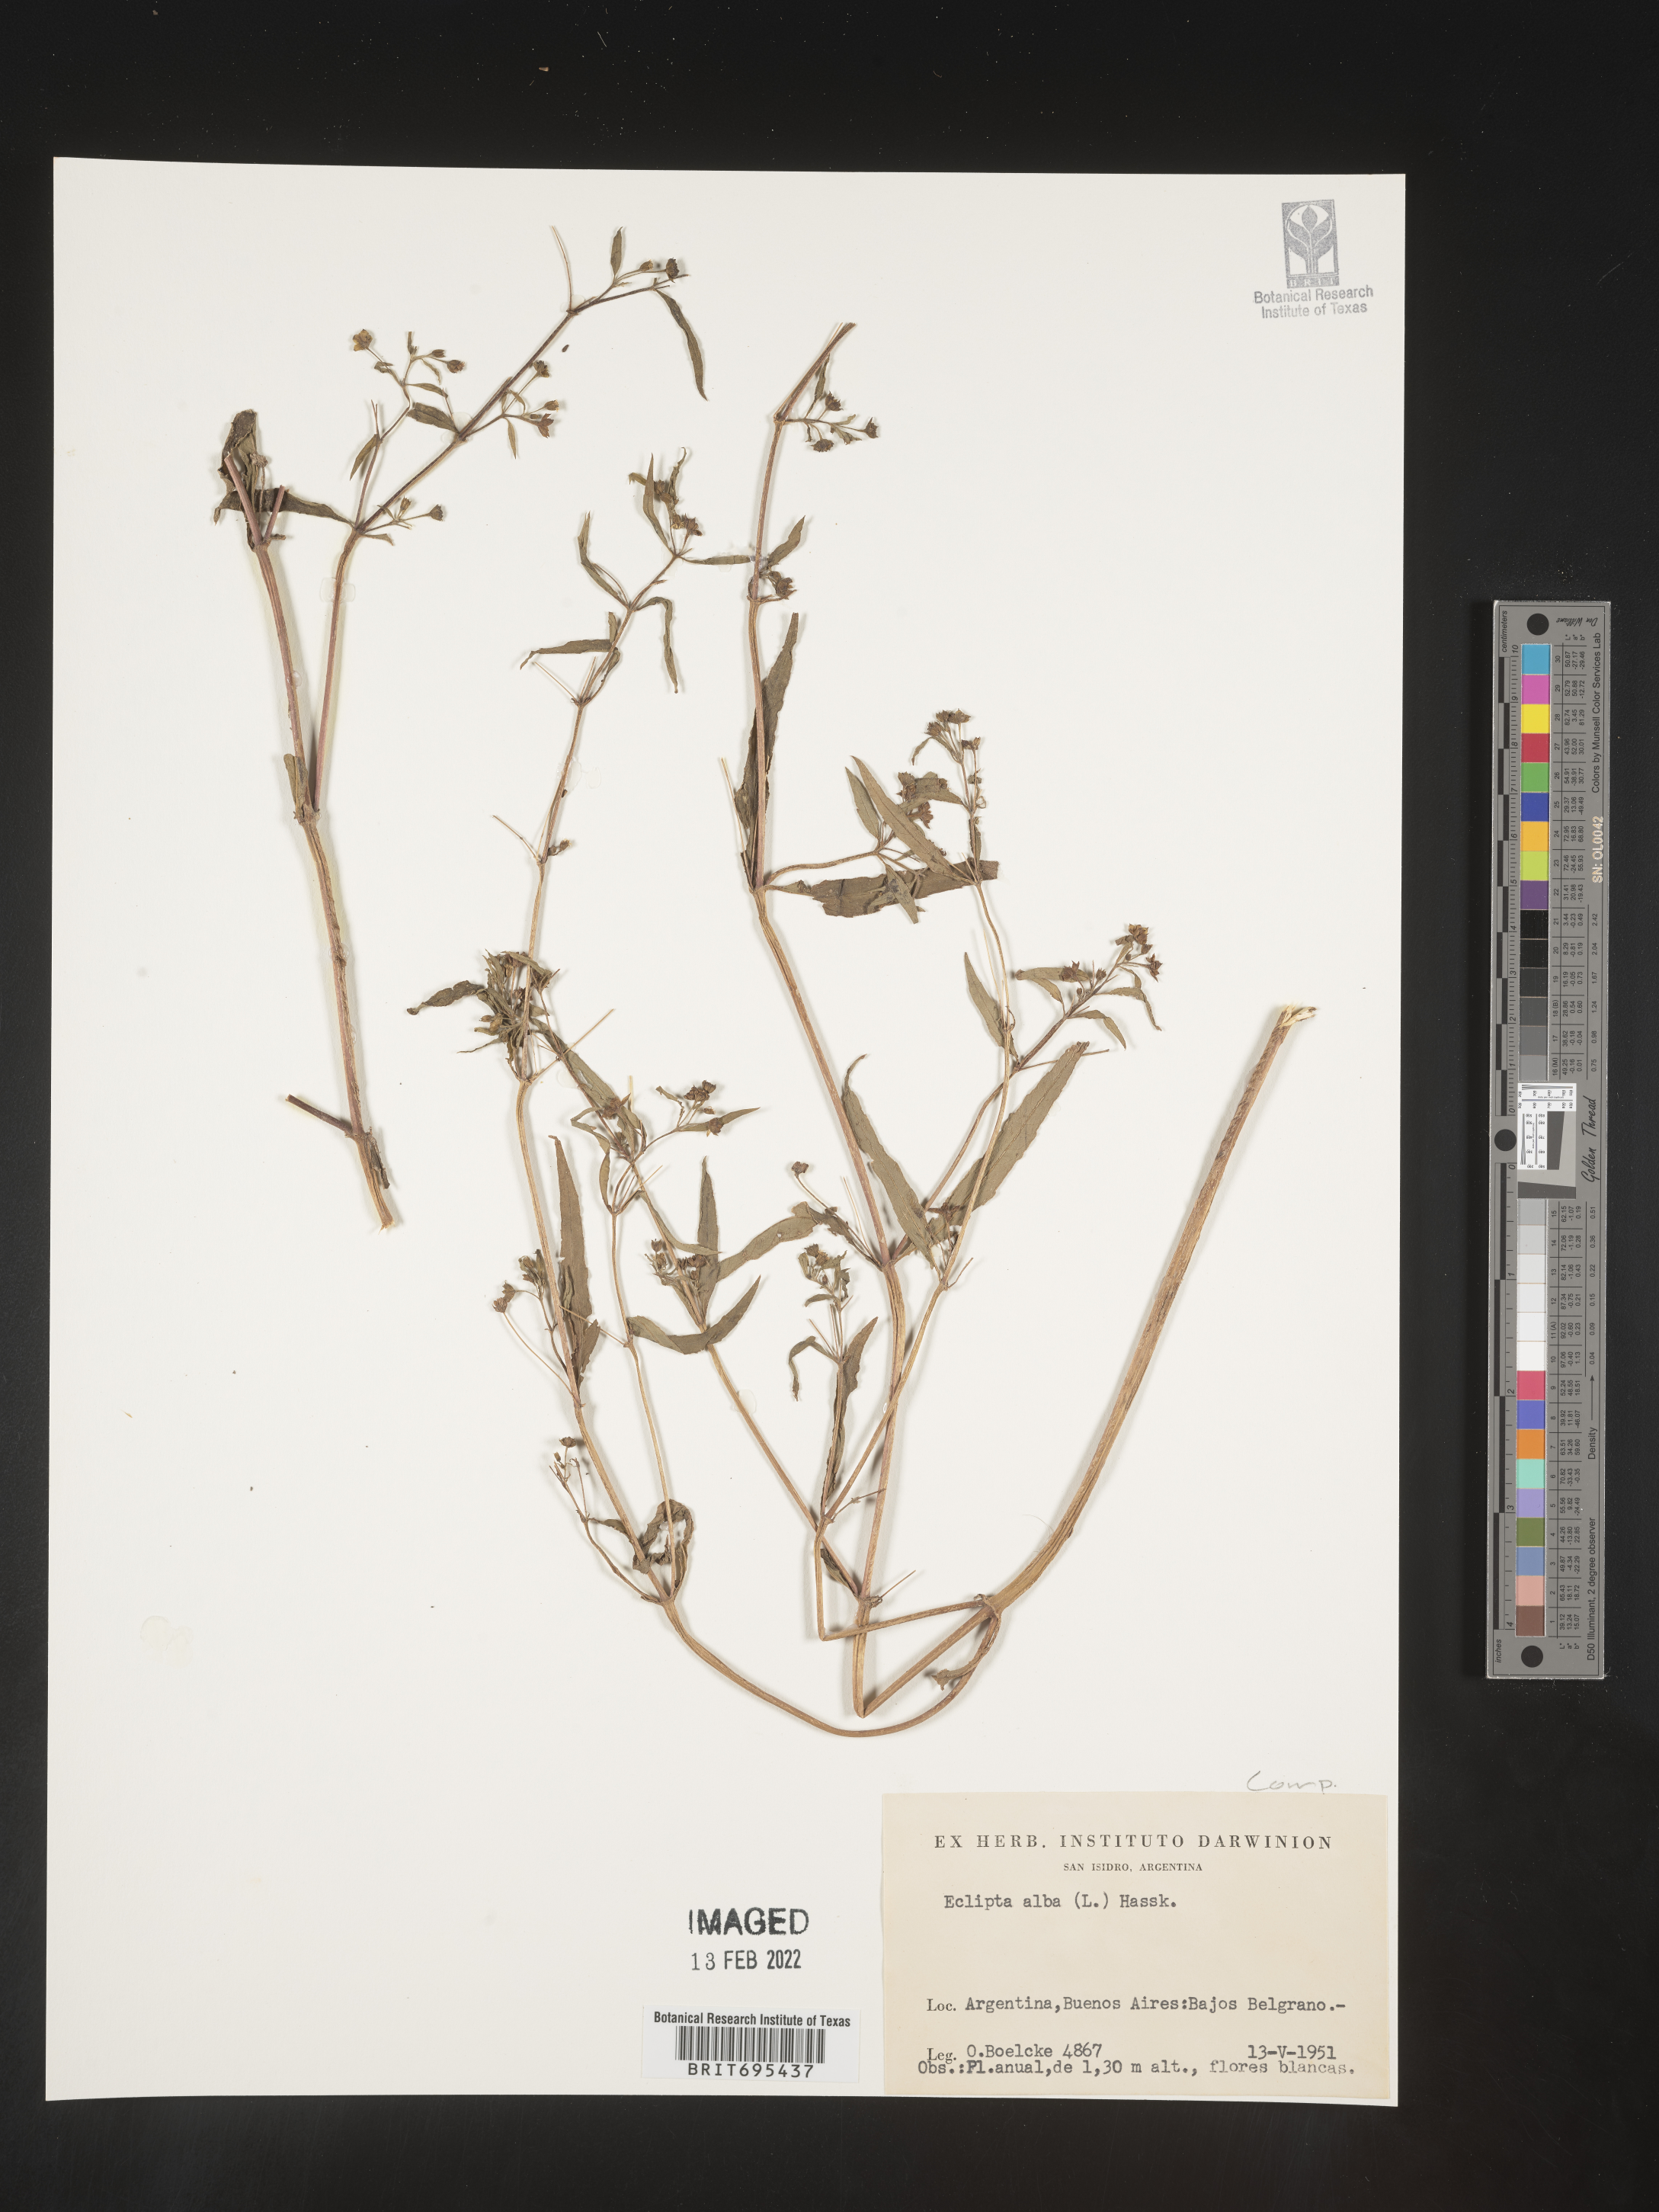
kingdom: Plantae
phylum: Tracheophyta
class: Magnoliopsida
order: Asterales
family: Asteraceae
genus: Eclipta
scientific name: Eclipta
